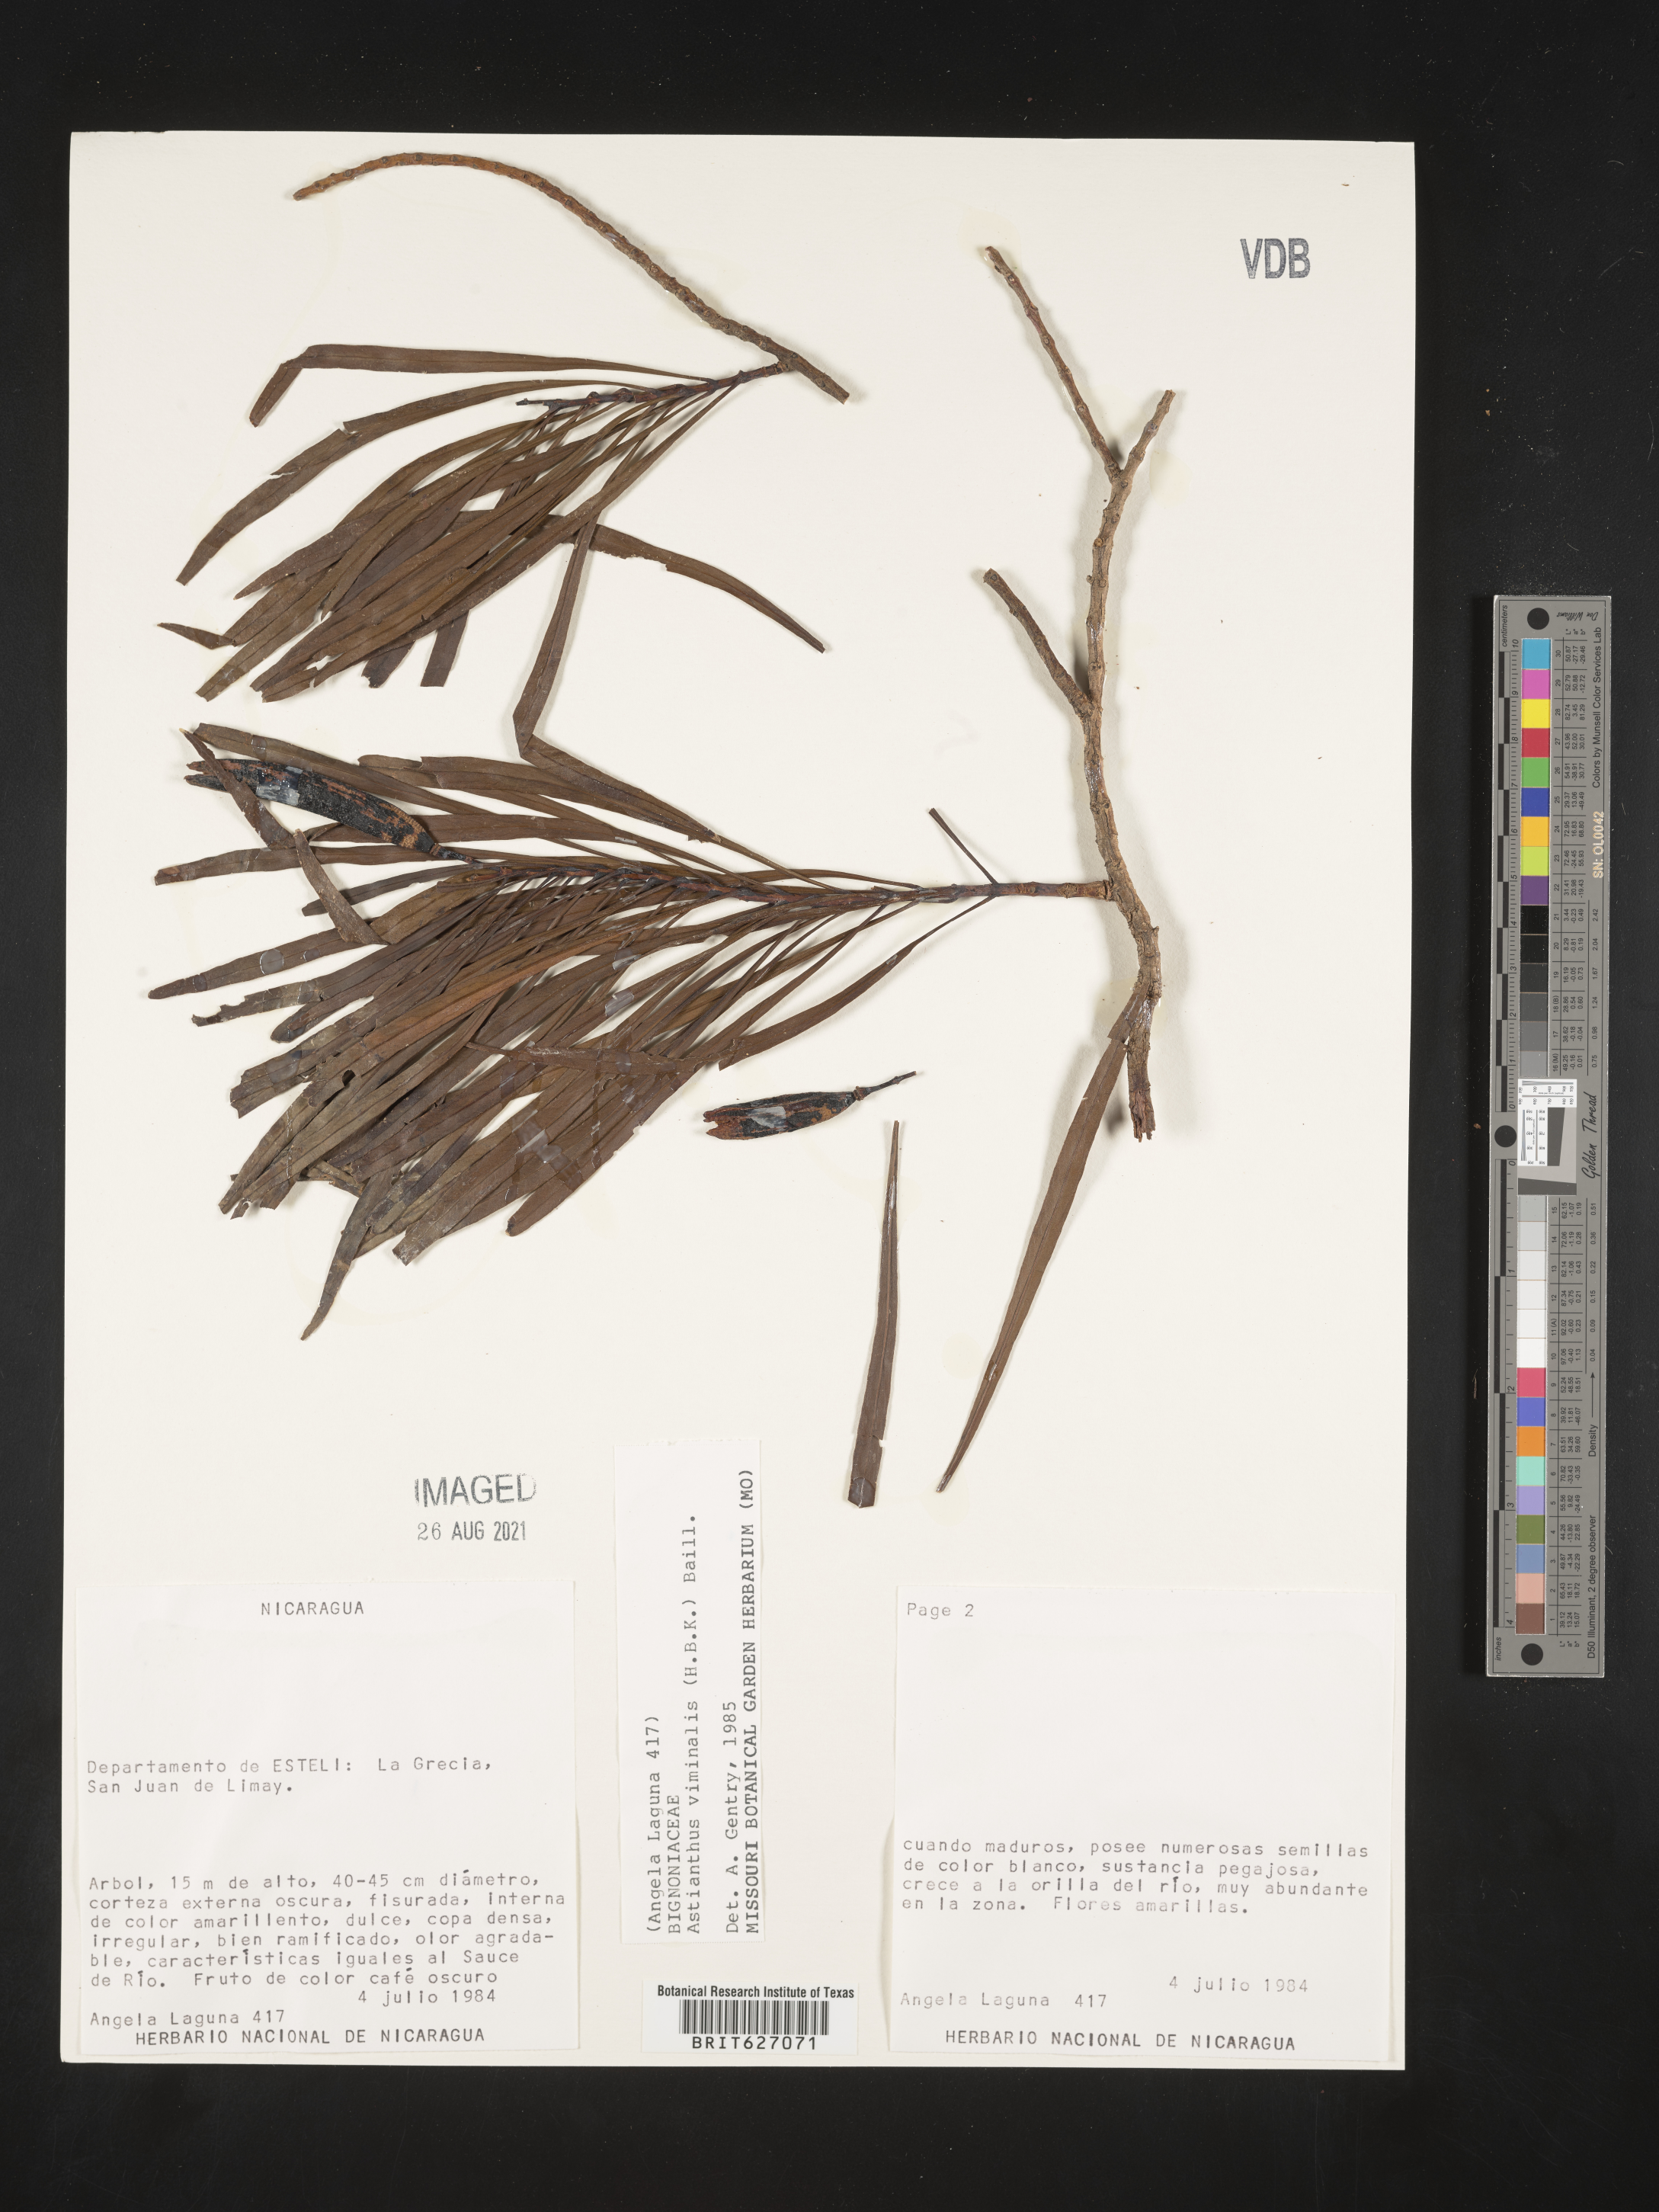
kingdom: Plantae
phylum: Tracheophyta
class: Magnoliopsida
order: Lamiales
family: Bignoniaceae
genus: Astianthus
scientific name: Astianthus viminalis
